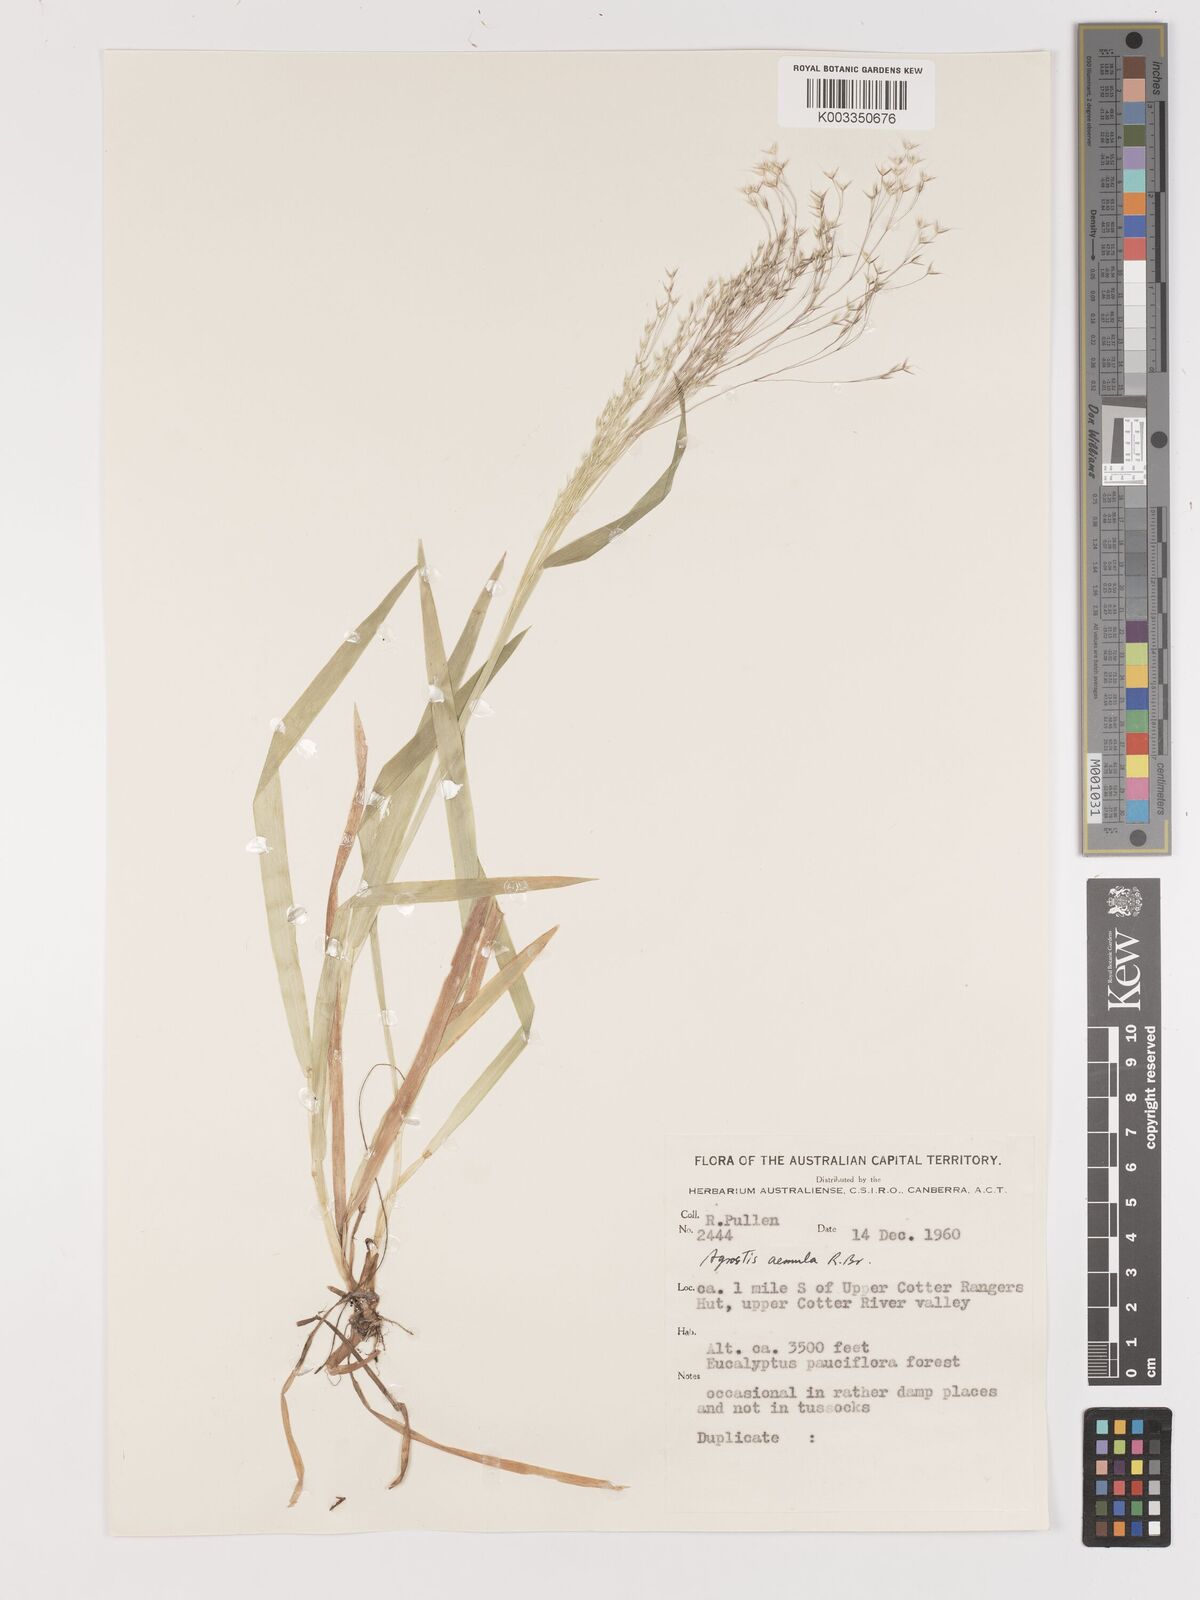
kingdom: Plantae
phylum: Tracheophyta
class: Liliopsida
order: Poales
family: Poaceae
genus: Lachnagrostis
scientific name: Lachnagrostis aemula
